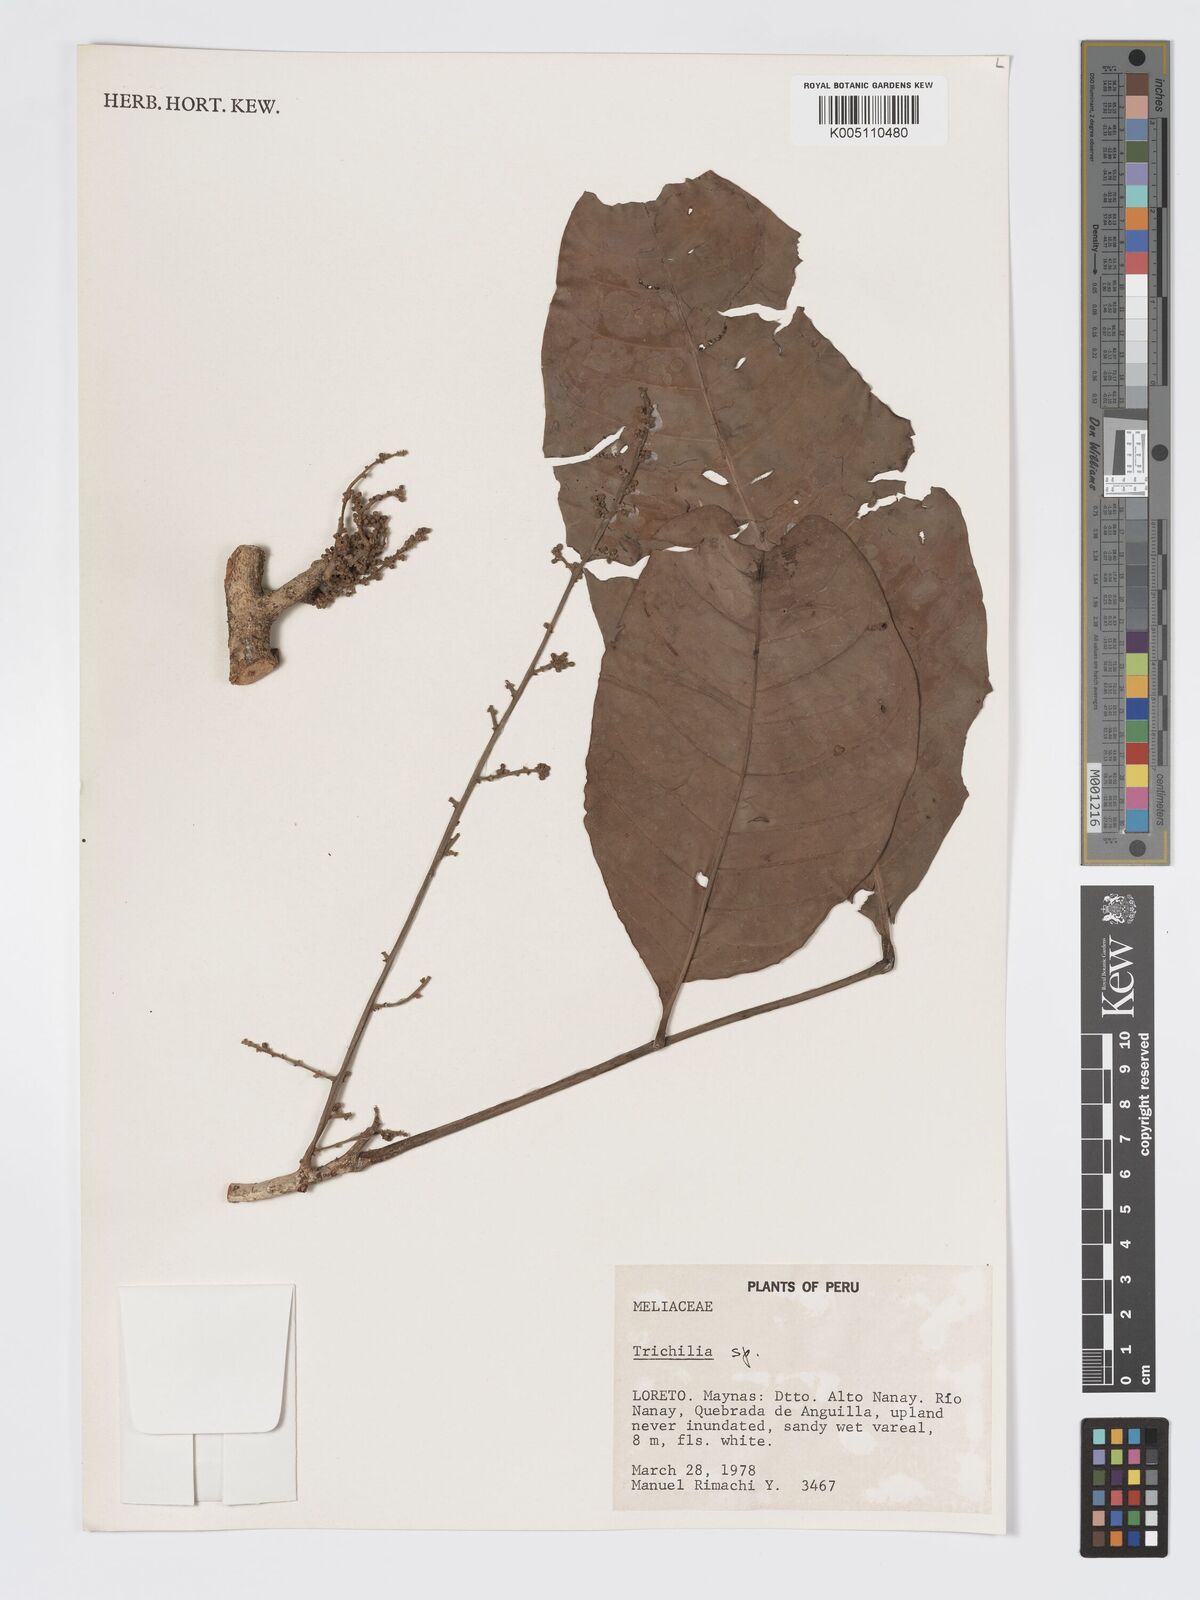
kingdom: Plantae
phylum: Tracheophyta
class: Magnoliopsida
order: Sapindales
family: Meliaceae
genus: Trichilia
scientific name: Trichilia
